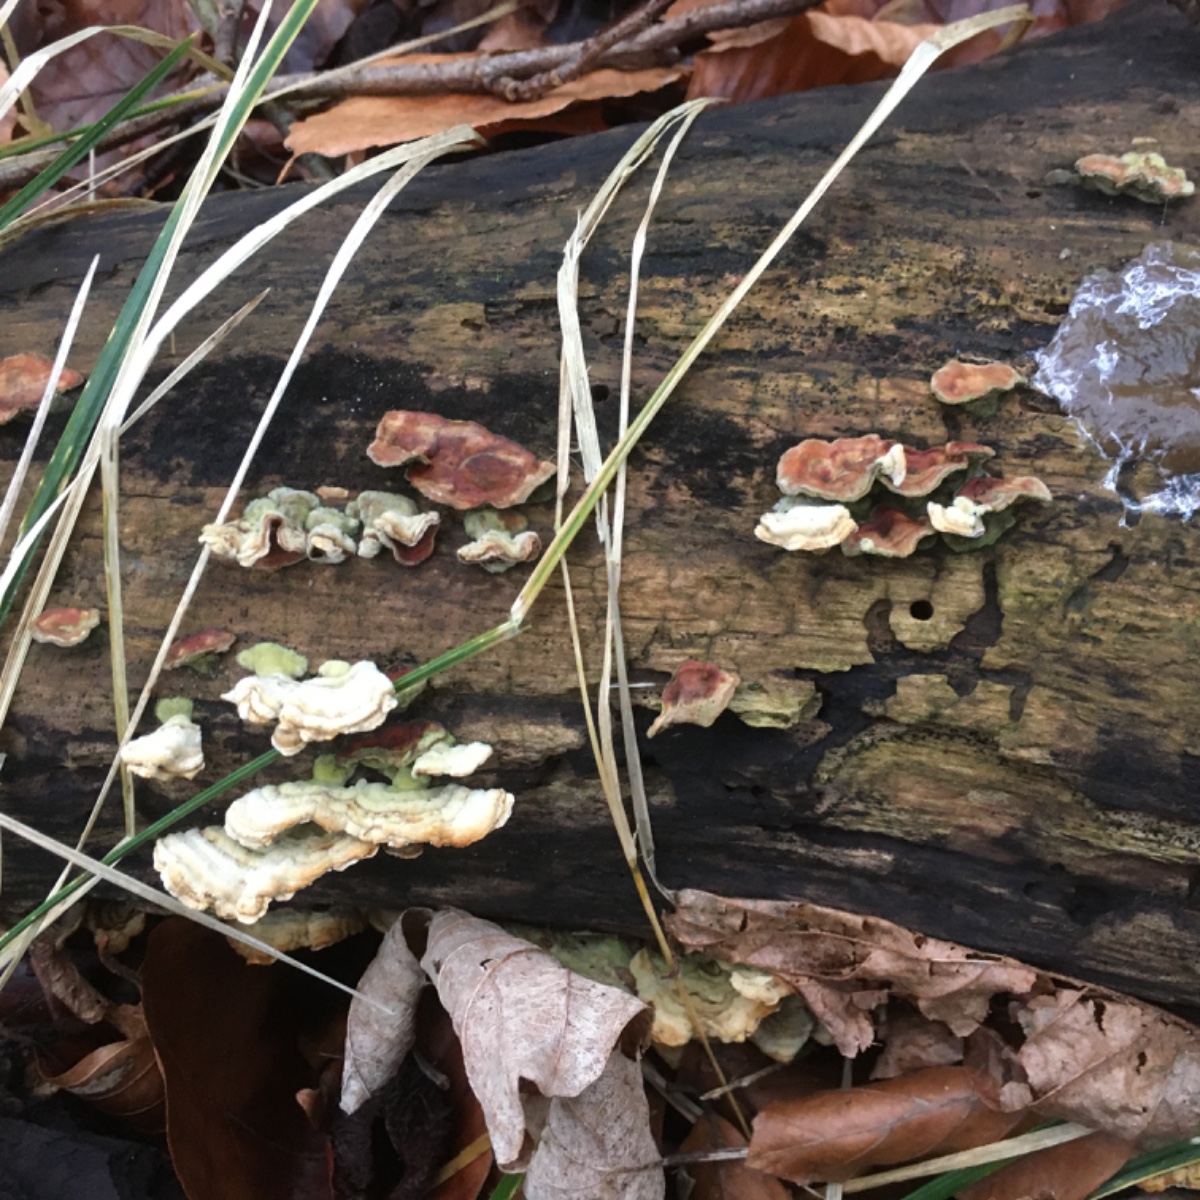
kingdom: Fungi
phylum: Basidiomycota
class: Agaricomycetes
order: Russulales
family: Stereaceae
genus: Stereum
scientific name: Stereum hirsutum
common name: håret lædersvamp
